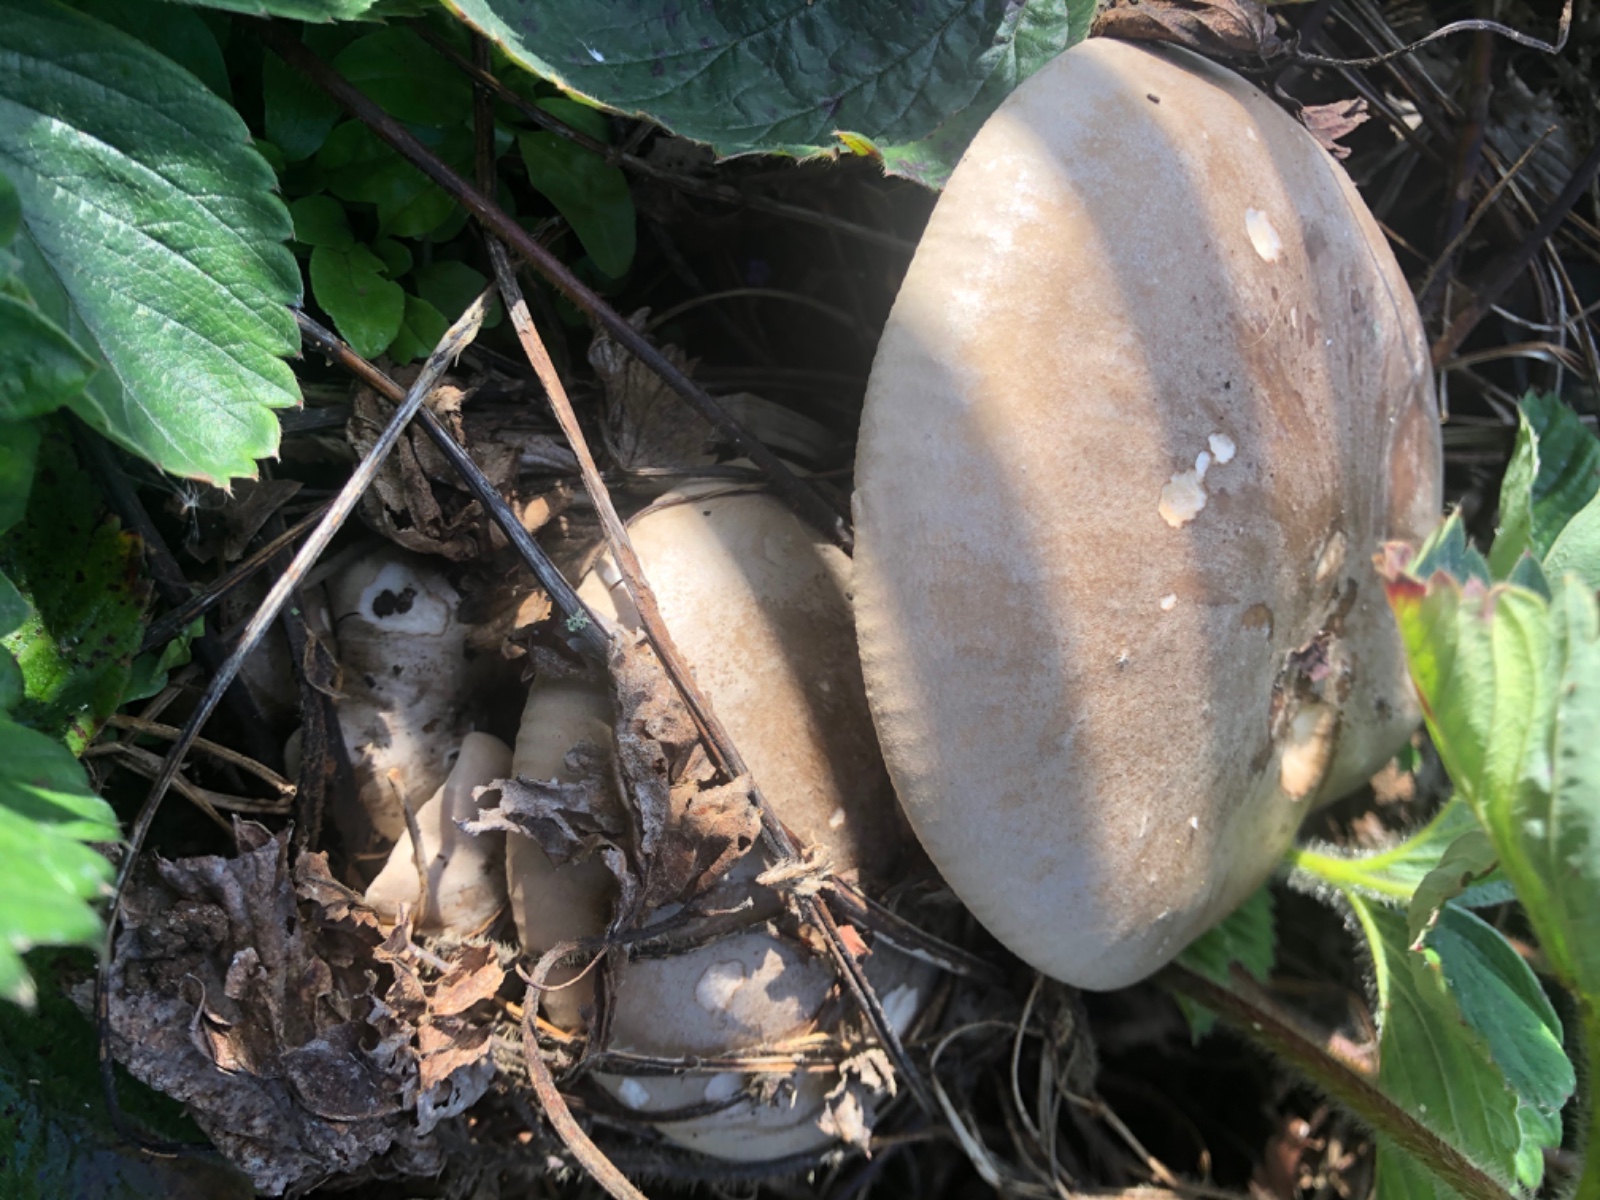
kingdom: Fungi
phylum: Basidiomycota
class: Agaricomycetes
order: Agaricales
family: Tricholomataceae
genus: Clitocybe
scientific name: Clitocybe nebularis
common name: tåge-tragthat
